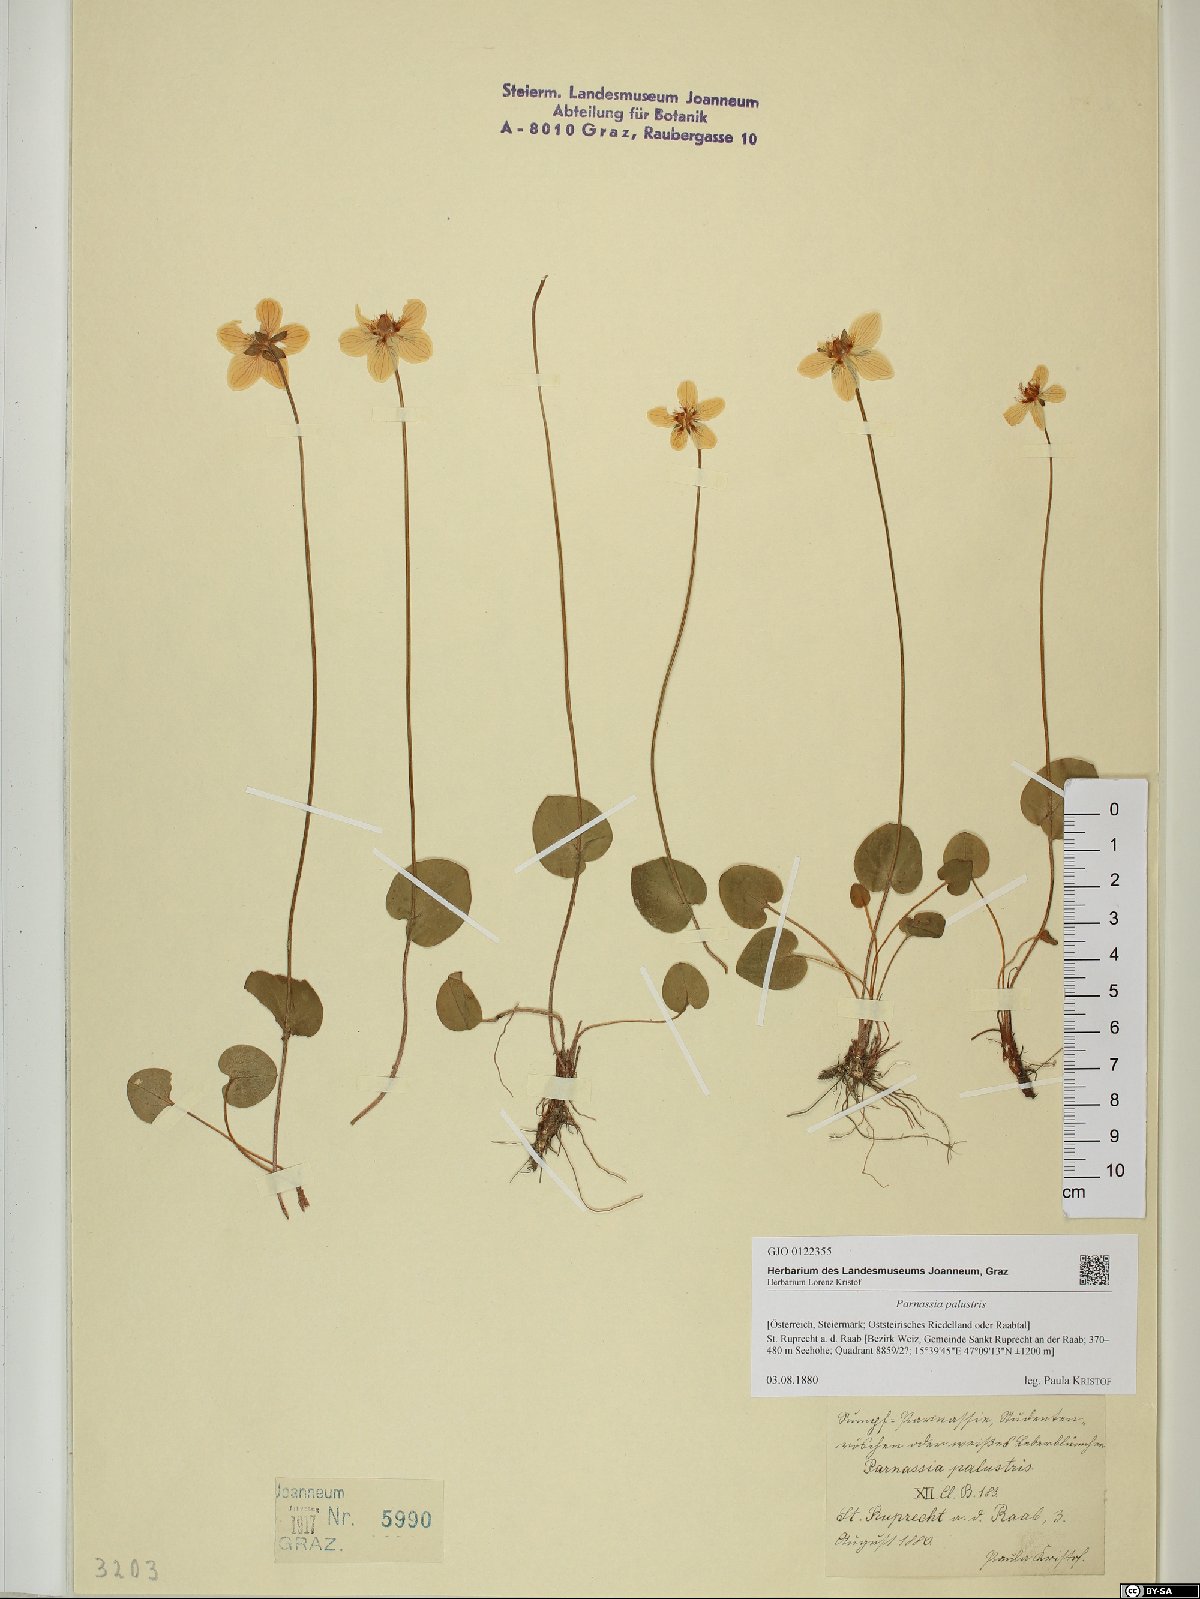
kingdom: Plantae
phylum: Tracheophyta
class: Magnoliopsida
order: Celastrales
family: Parnassiaceae
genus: Parnassia
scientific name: Parnassia palustris
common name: Grass-of-parnassus
